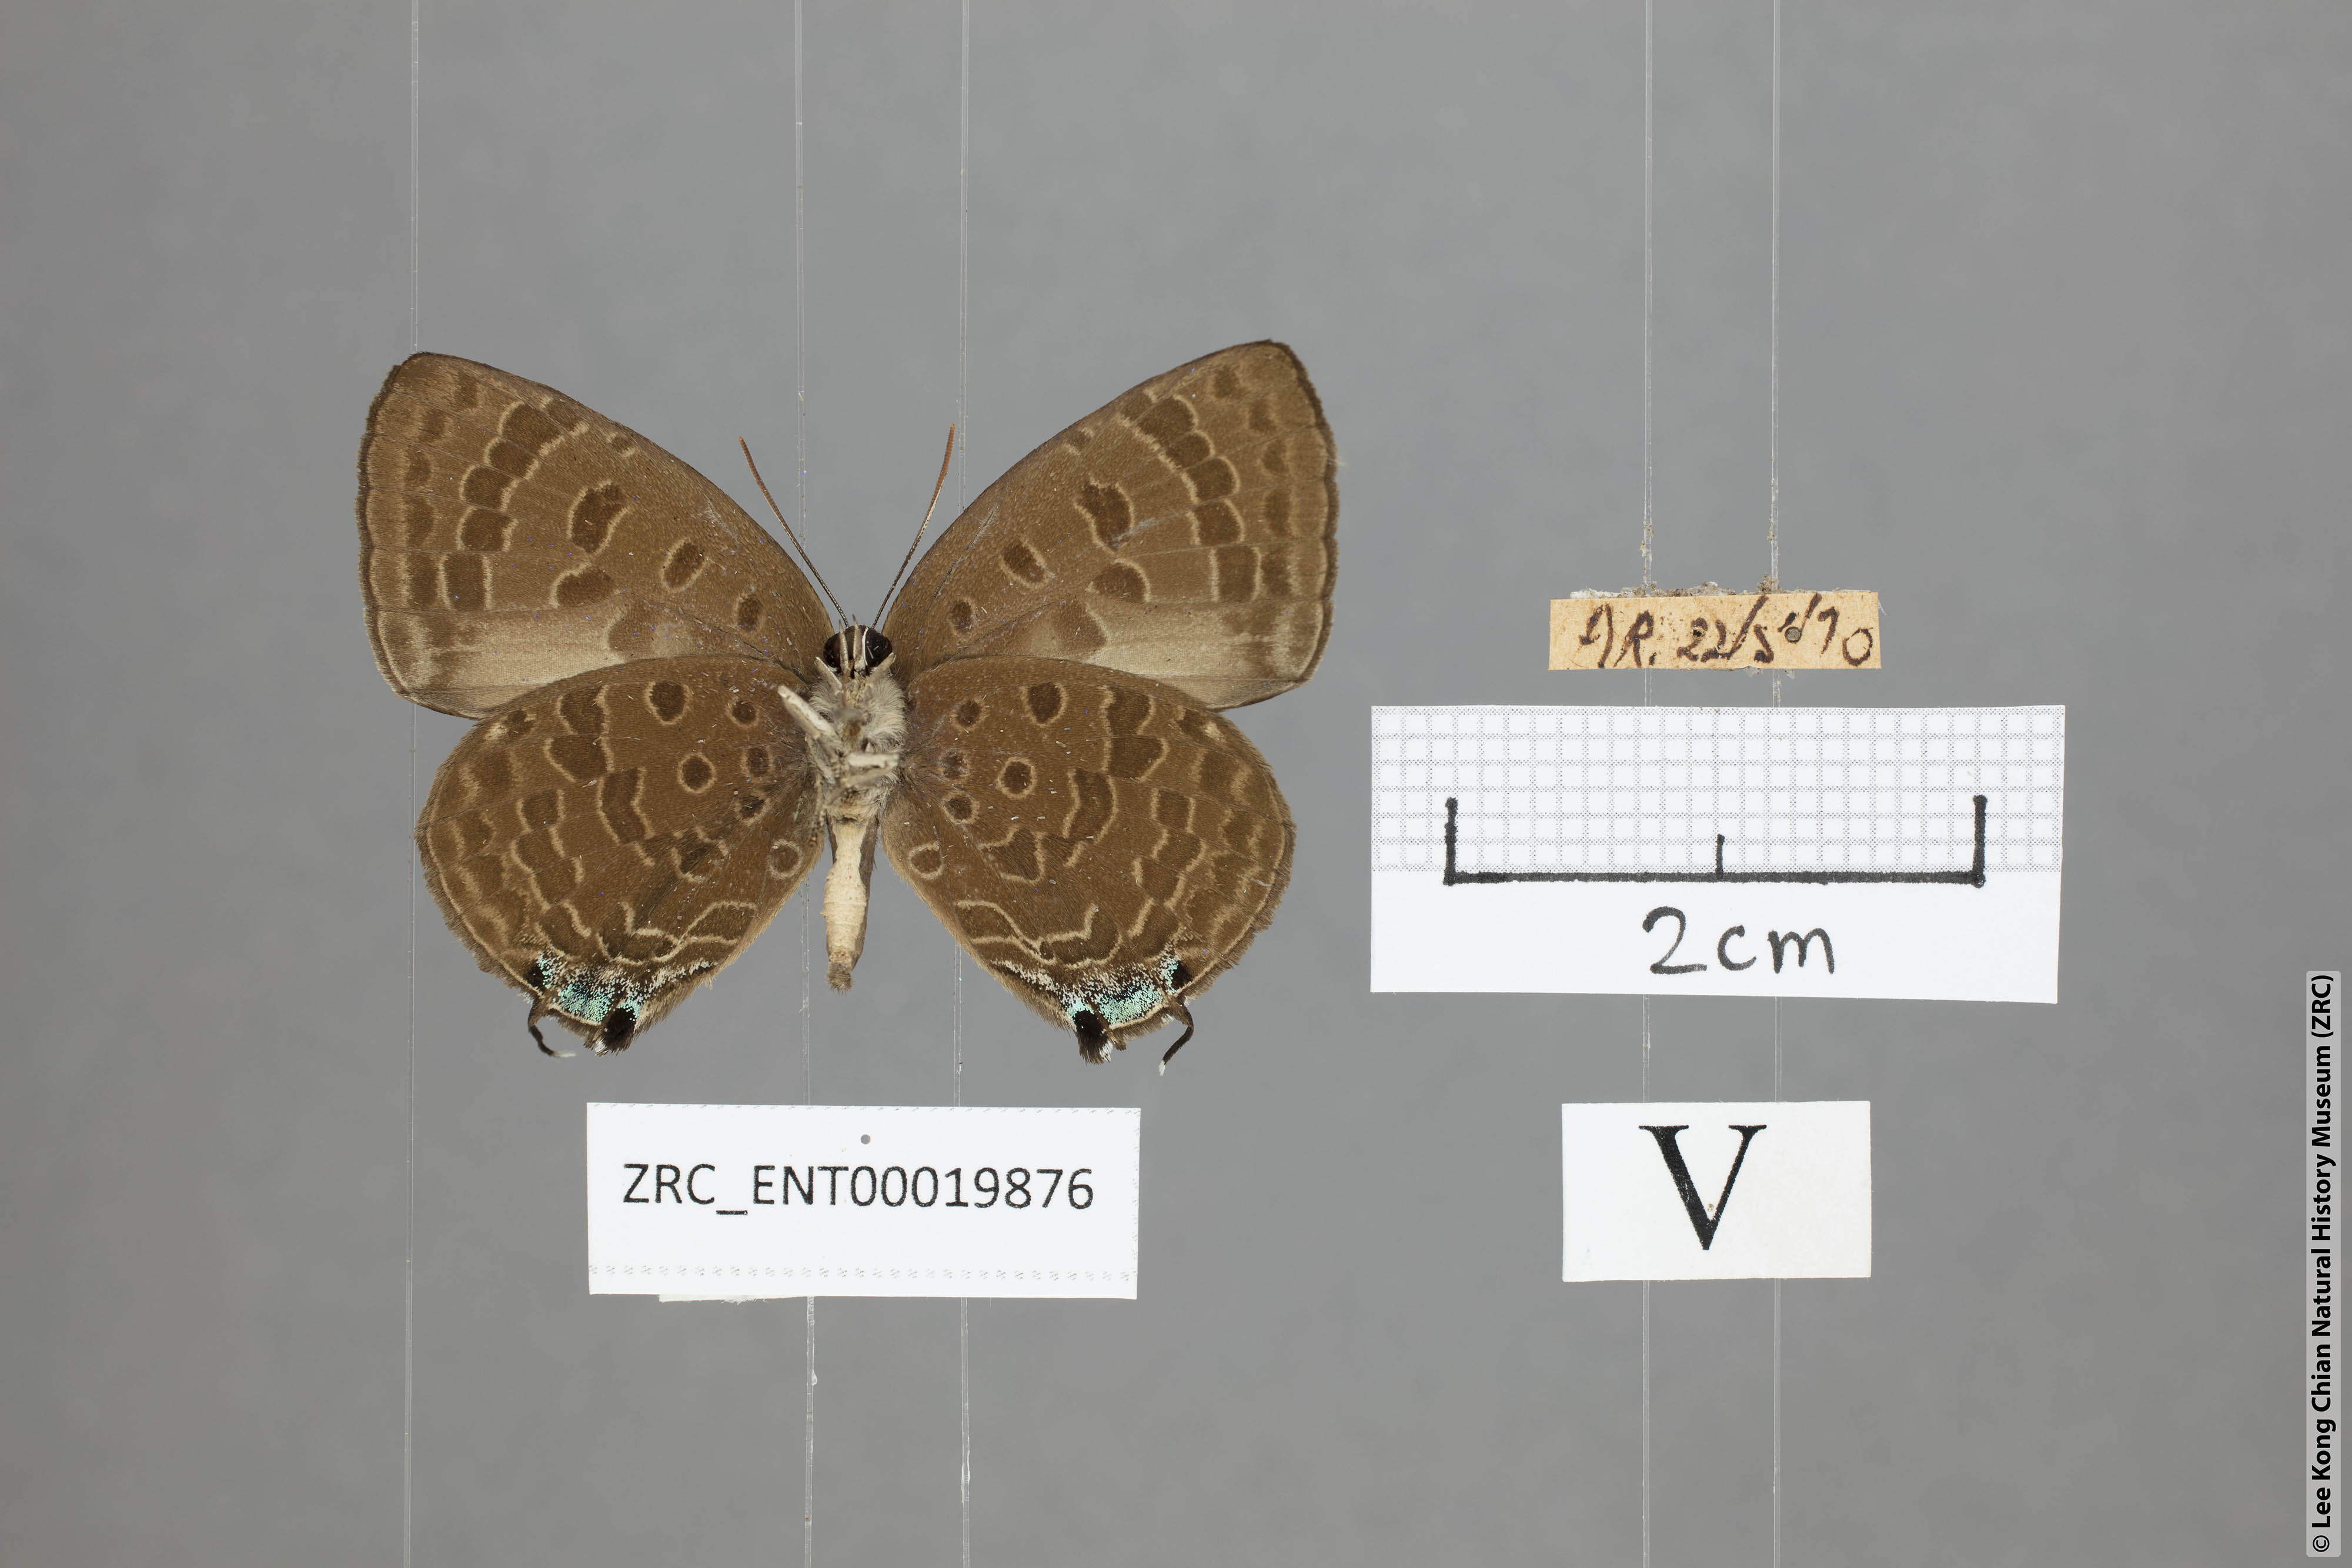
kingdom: Animalia
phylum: Arthropoda
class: Insecta
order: Lepidoptera
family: Lycaenidae
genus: Arhopala
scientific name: Arhopala sublustris
